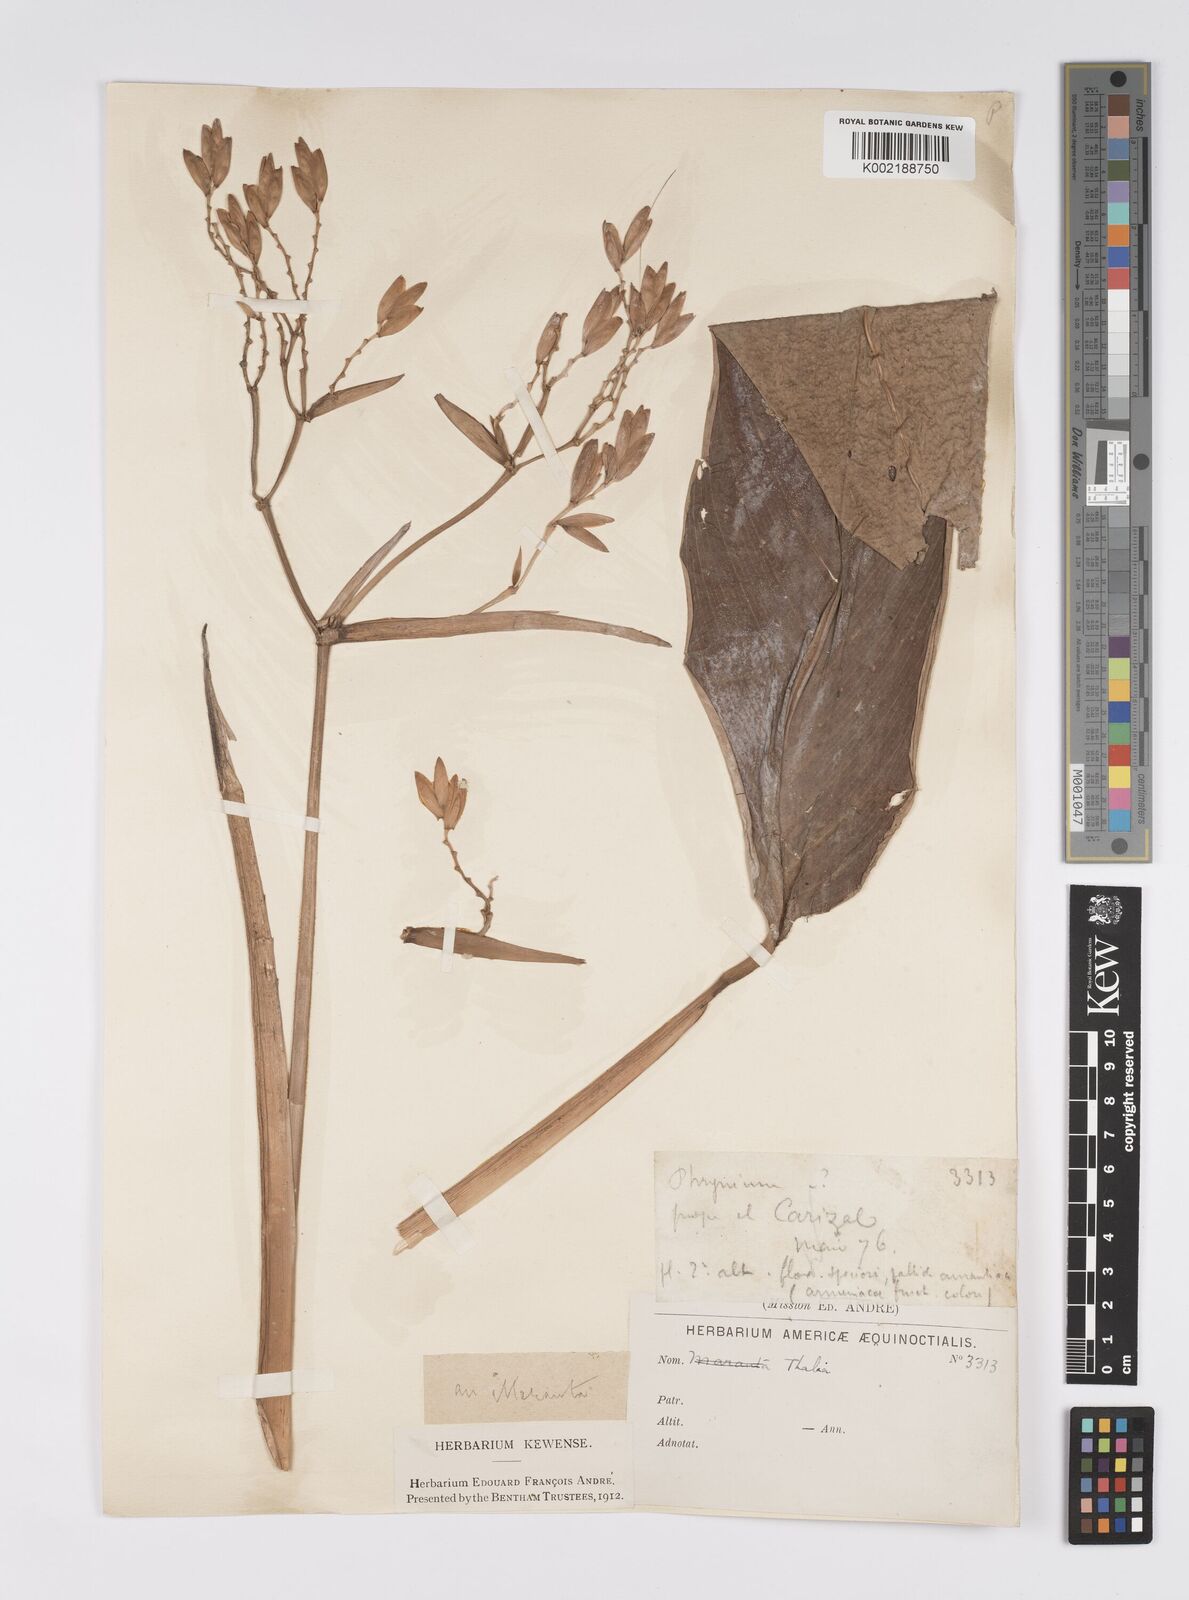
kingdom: Plantae
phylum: Tracheophyta
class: Liliopsida
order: Zingiberales
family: Marantaceae
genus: Stromanthe
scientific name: Stromanthe jacquinii
